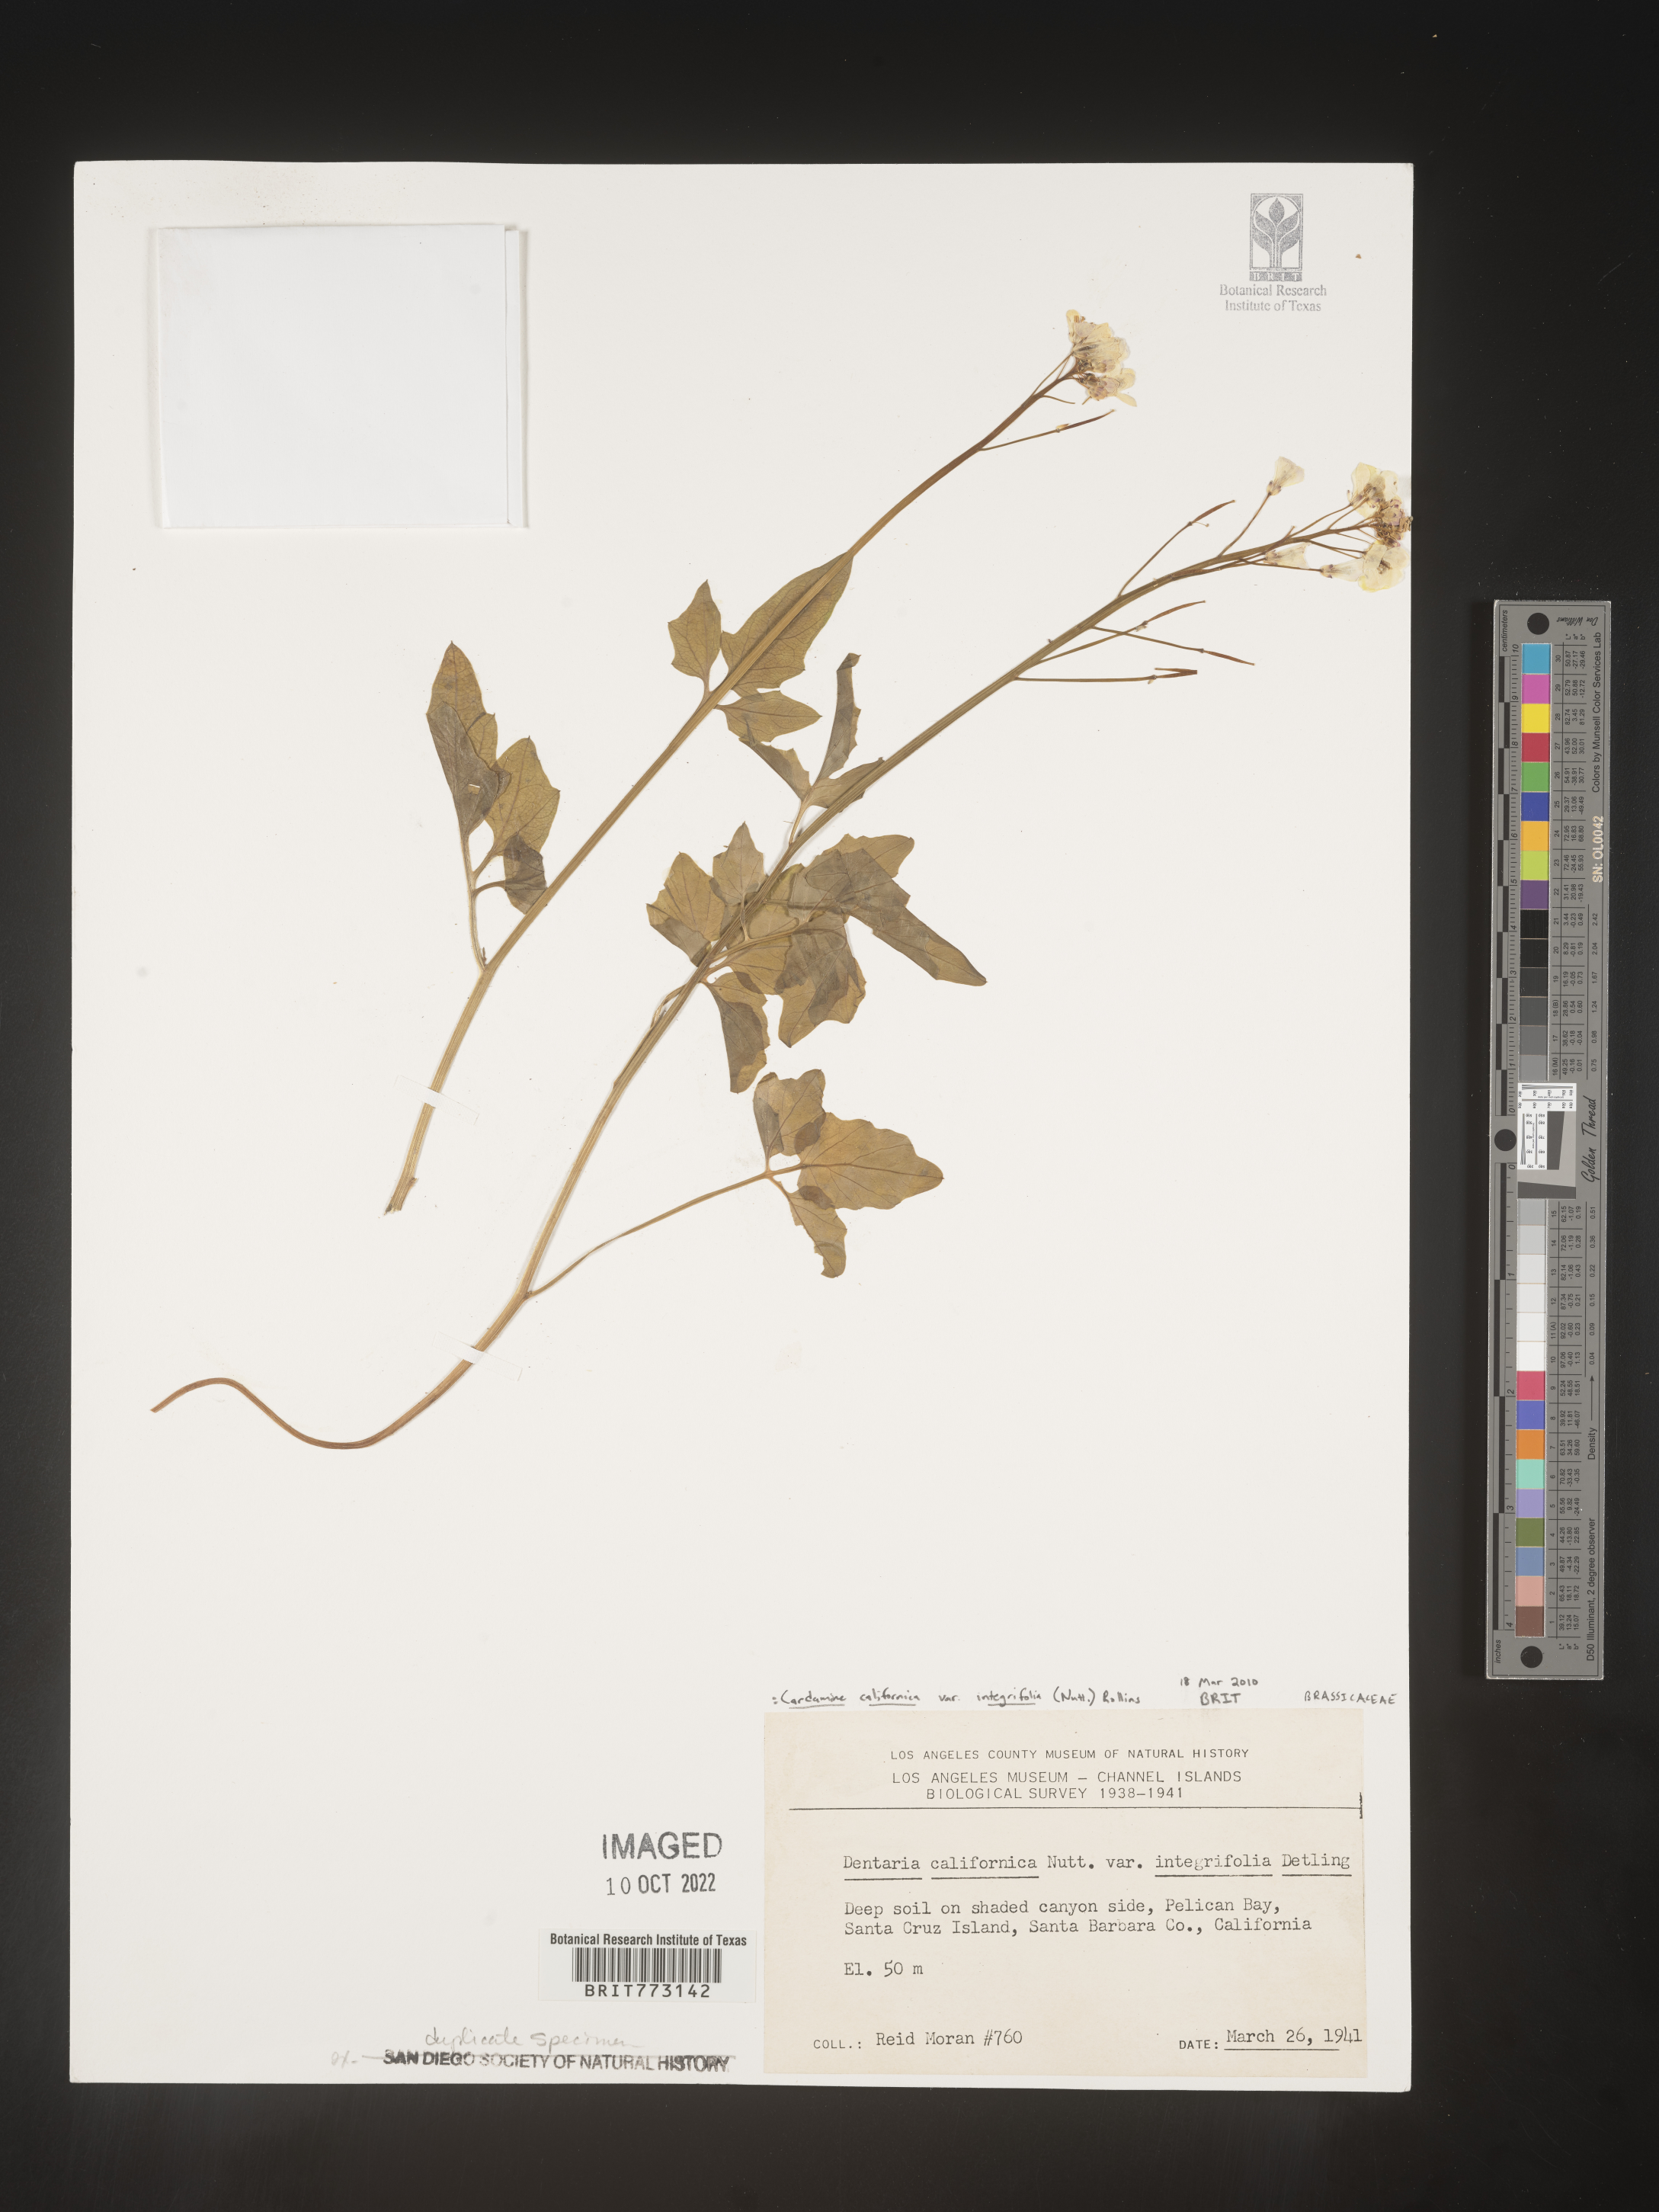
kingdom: Plantae
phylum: Tracheophyta
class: Magnoliopsida
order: Brassicales
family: Brassicaceae
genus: Cardamine
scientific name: Cardamine
